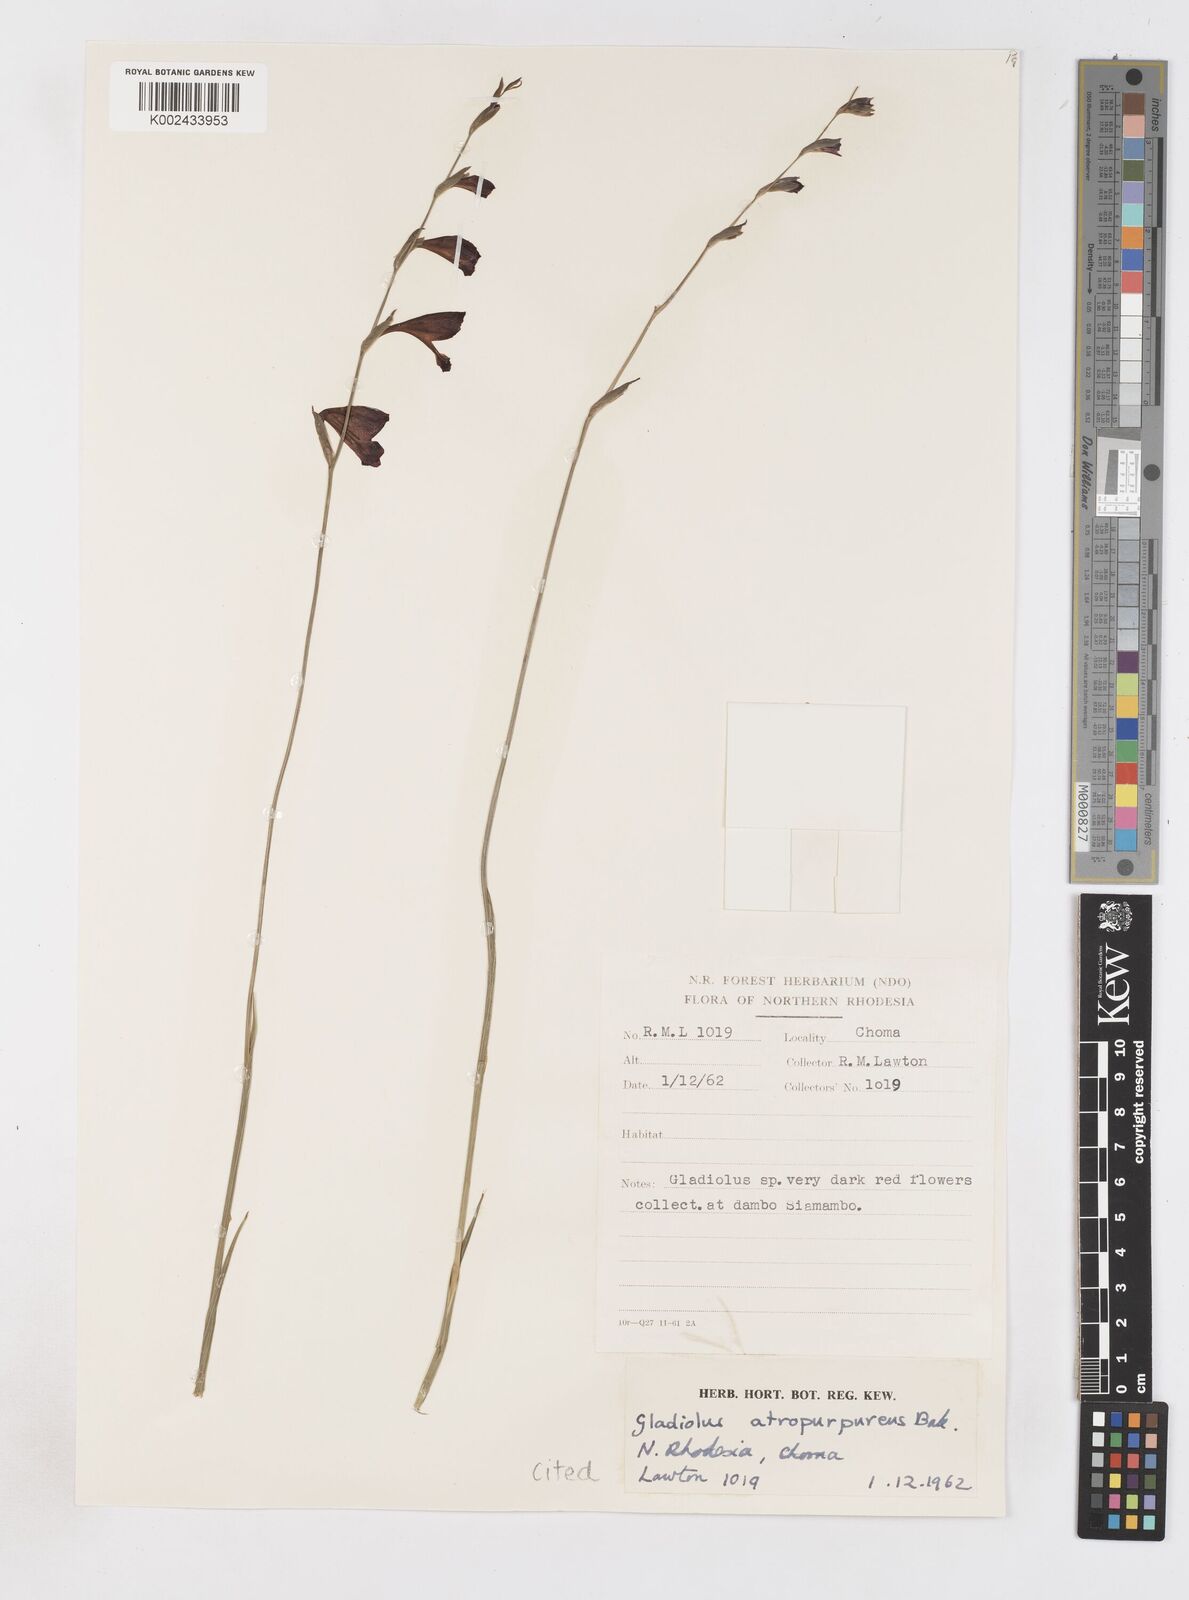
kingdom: Plantae
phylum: Tracheophyta
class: Liliopsida
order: Asparagales
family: Iridaceae
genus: Gladiolus
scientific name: Gladiolus atropurpureus
